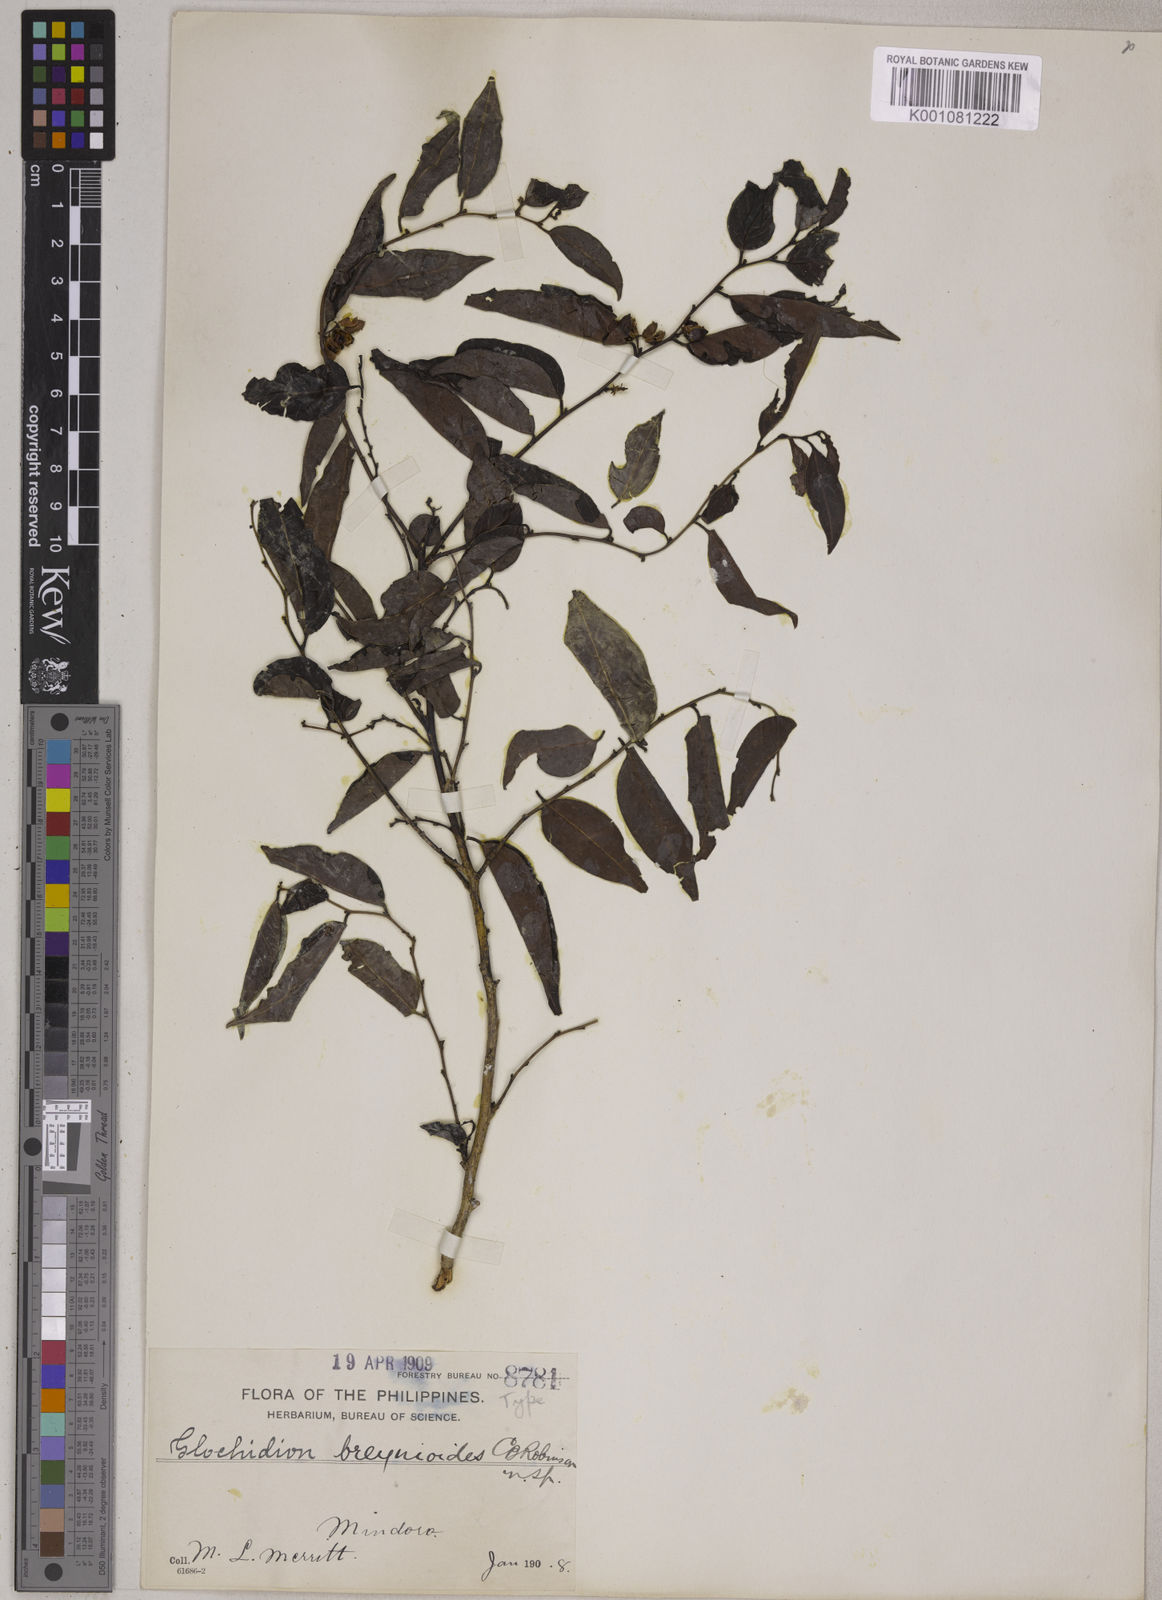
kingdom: Plantae
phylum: Tracheophyta
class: Magnoliopsida
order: Malpighiales
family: Phyllanthaceae
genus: Glochidion
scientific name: Glochidion lutescens
